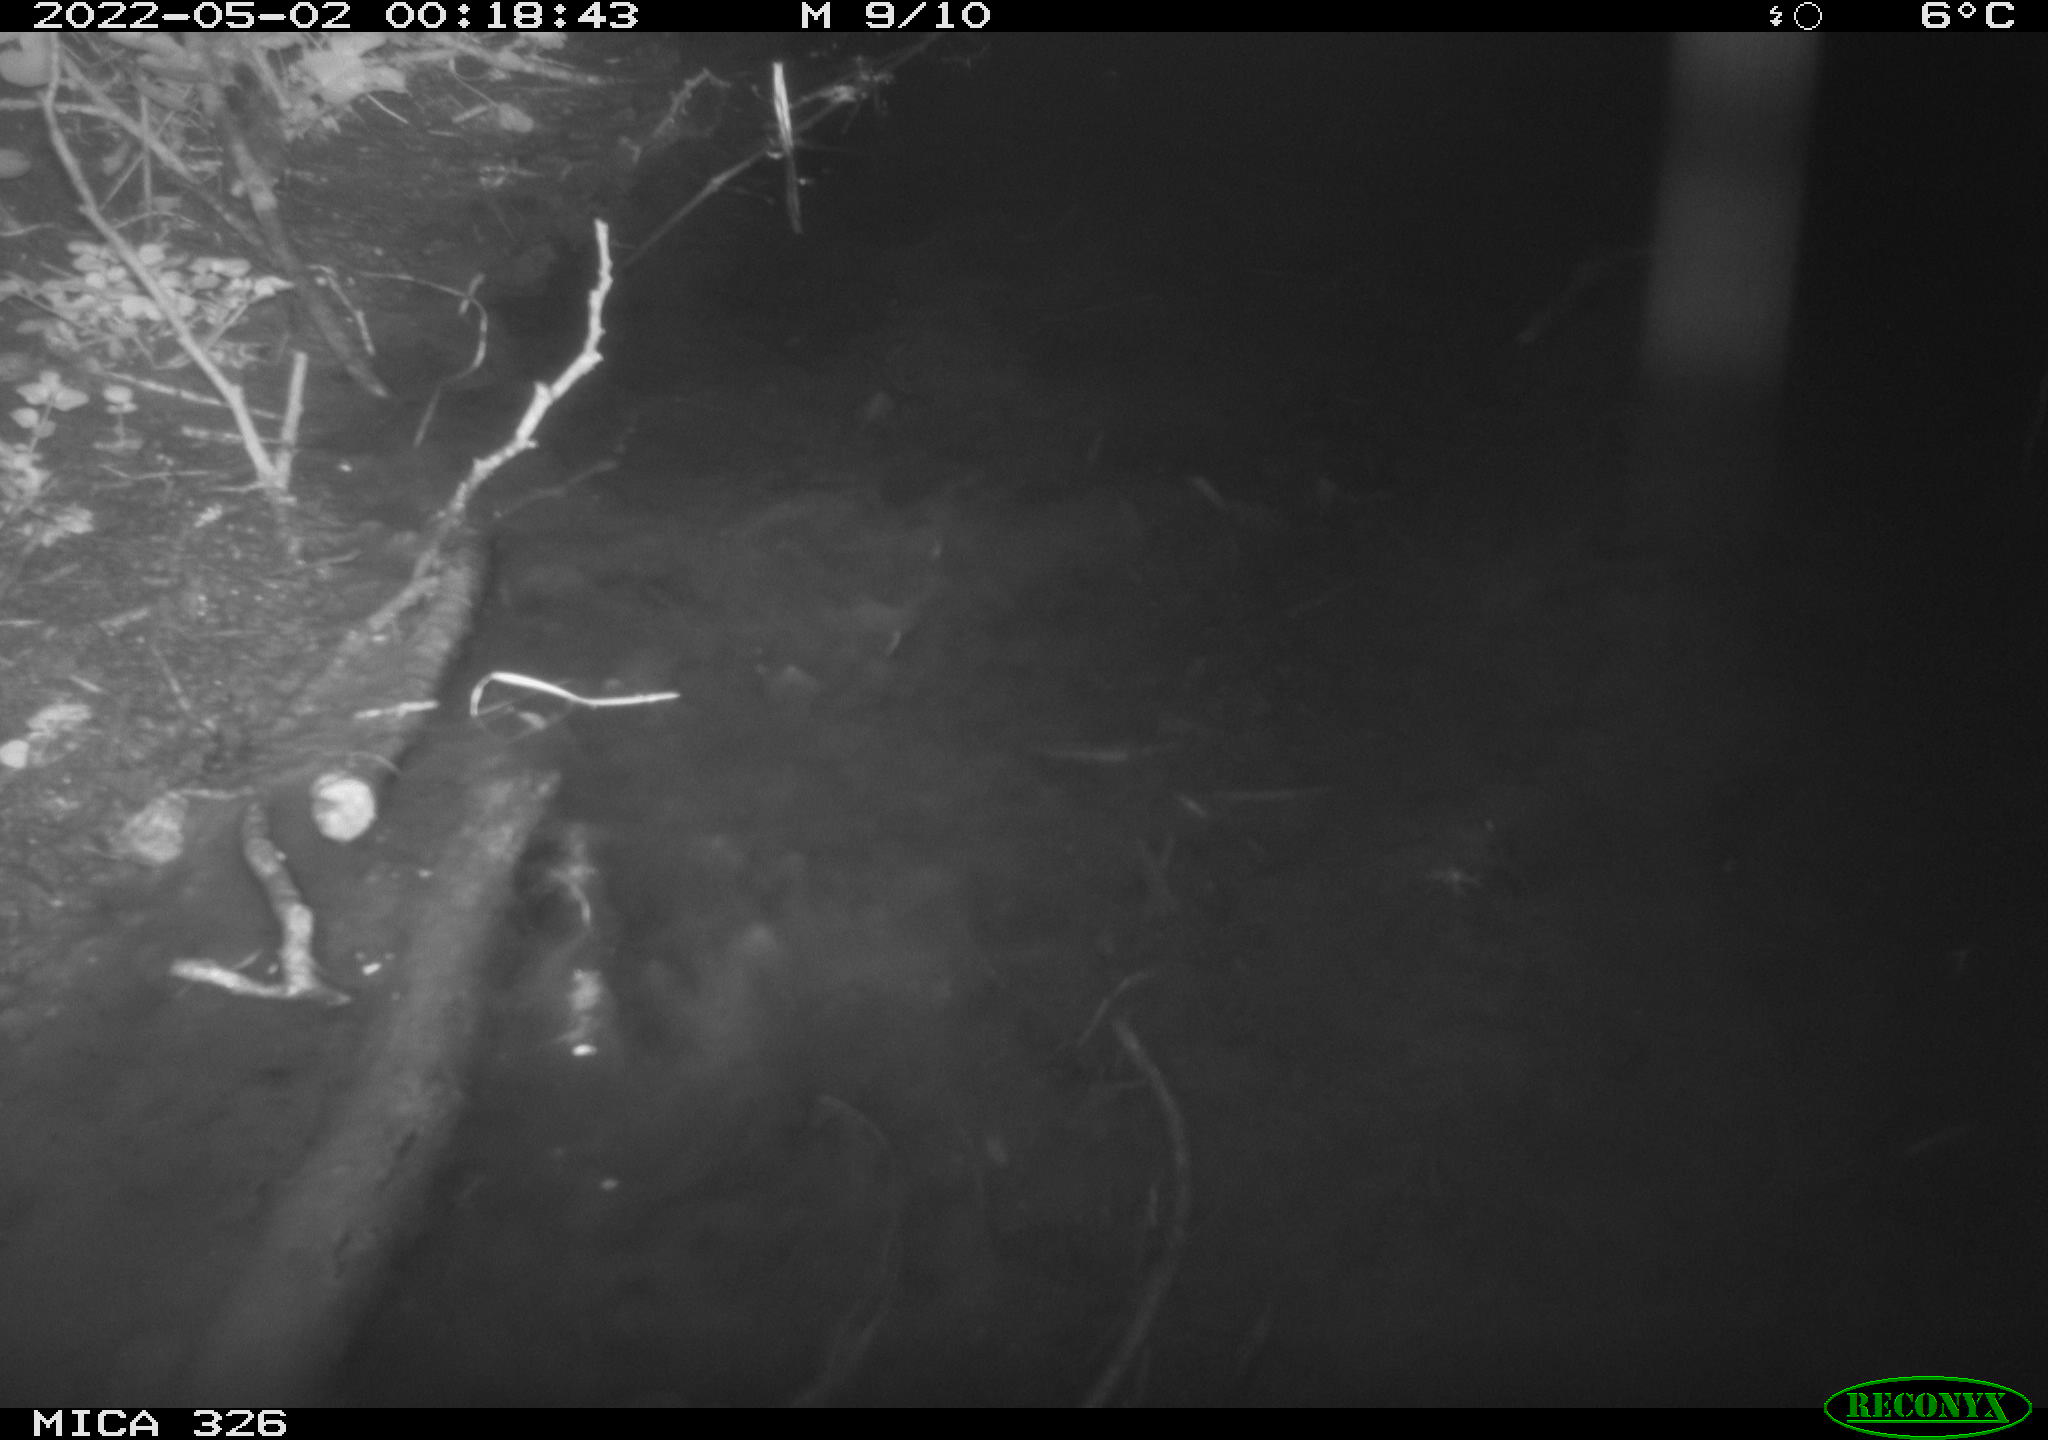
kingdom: Animalia
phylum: Chordata
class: Mammalia
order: Rodentia
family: Muridae
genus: Rattus
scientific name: Rattus norvegicus
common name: Brown rat
